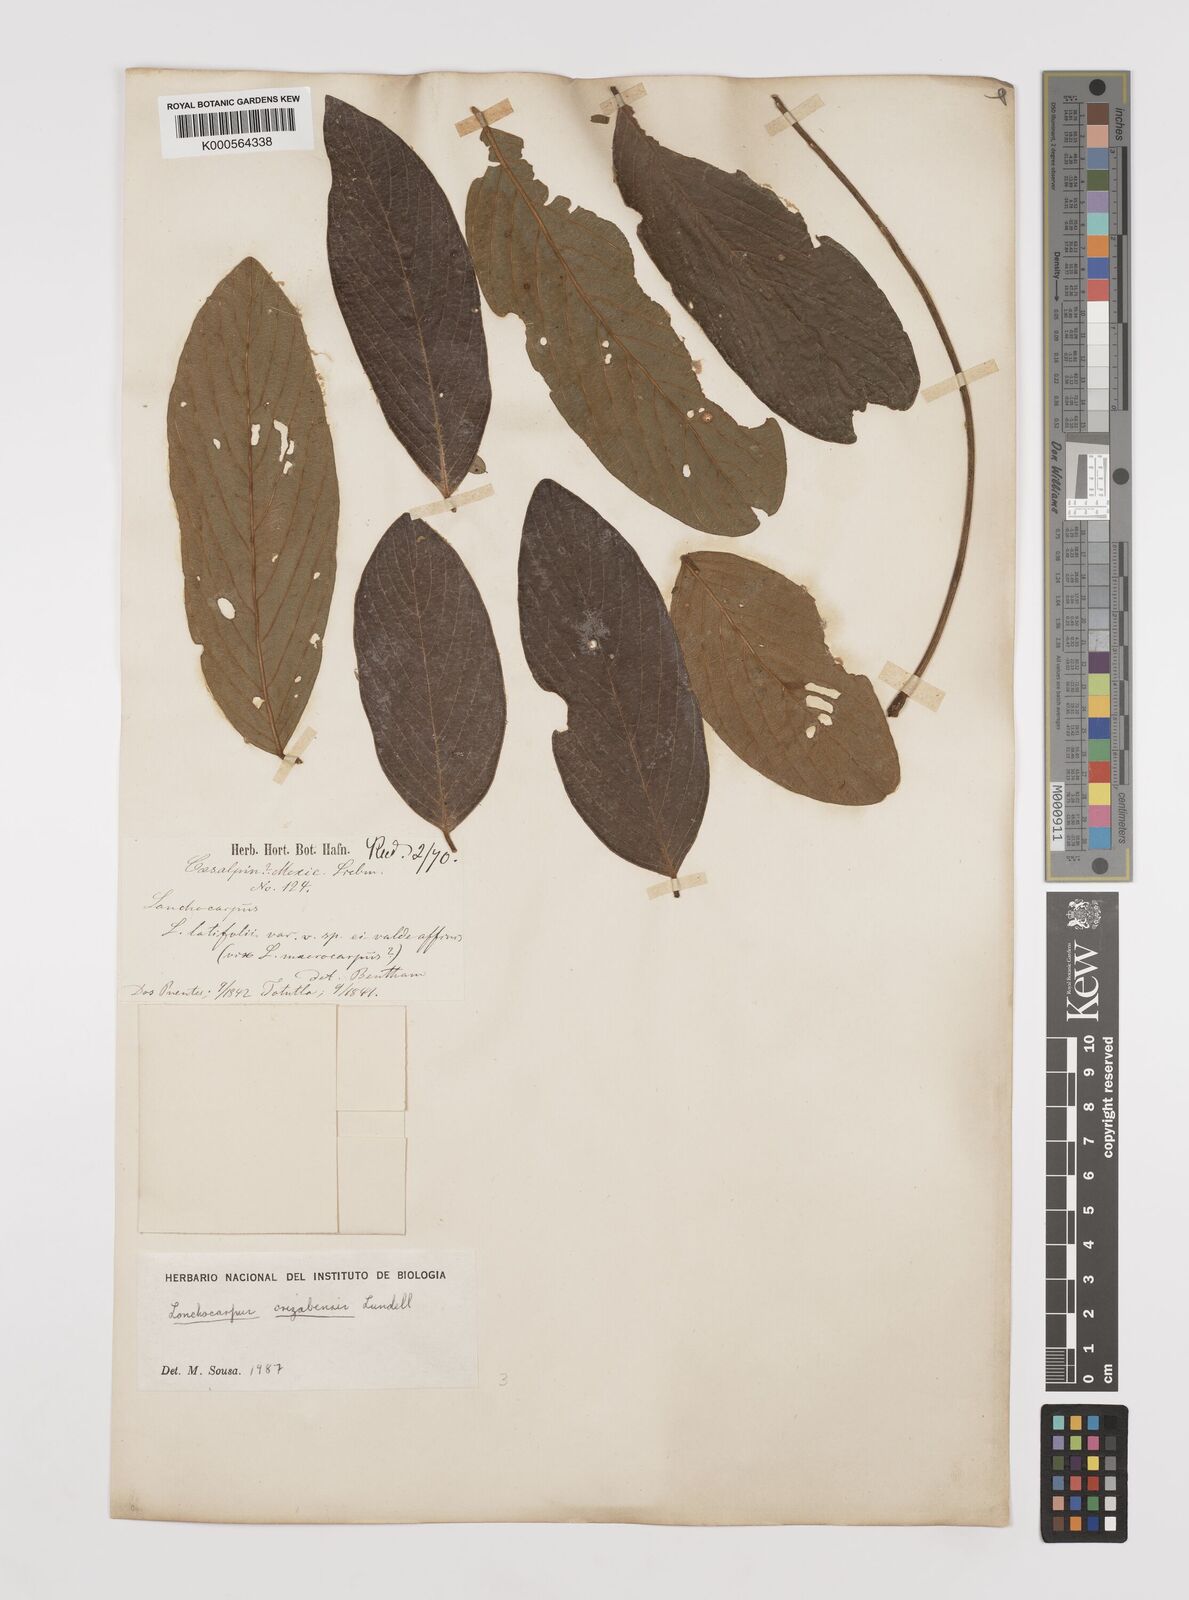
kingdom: Plantae
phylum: Tracheophyta
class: Magnoliopsida
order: Fabales
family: Fabaceae
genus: Lonchocarpus
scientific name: Lonchocarpus orizabensis
